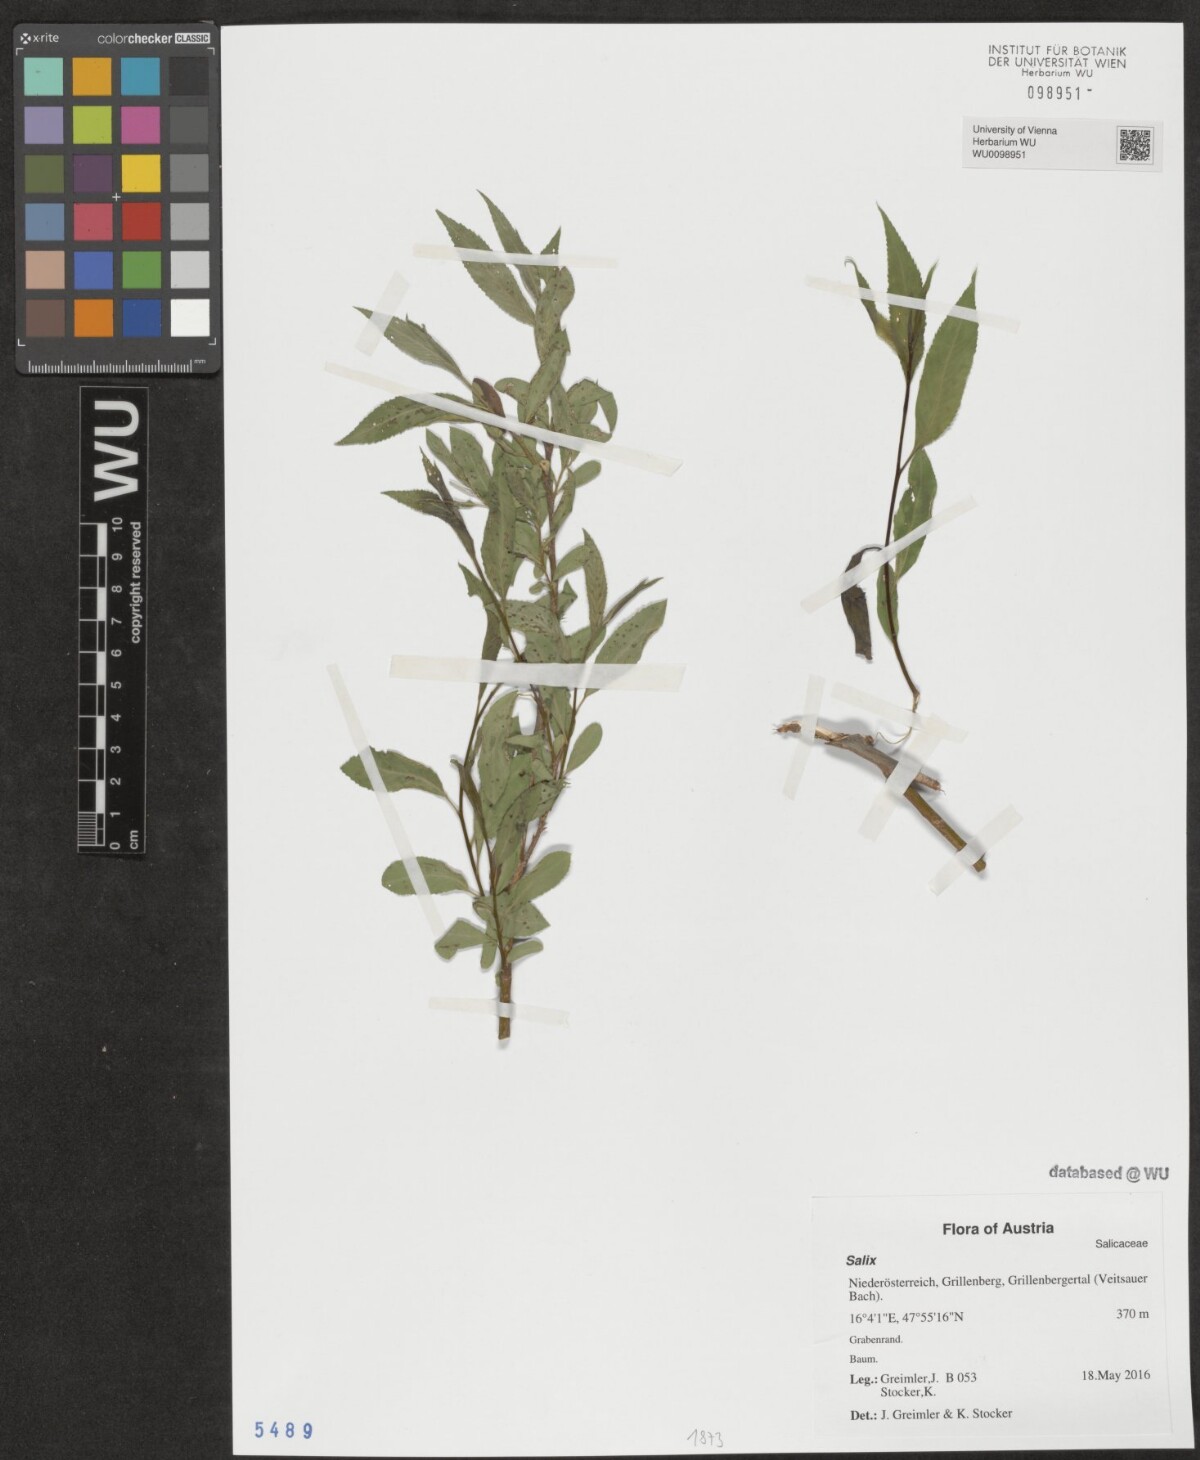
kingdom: Plantae
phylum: Tracheophyta
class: Magnoliopsida
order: Malpighiales
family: Salicaceae
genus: Salix
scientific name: Salix
